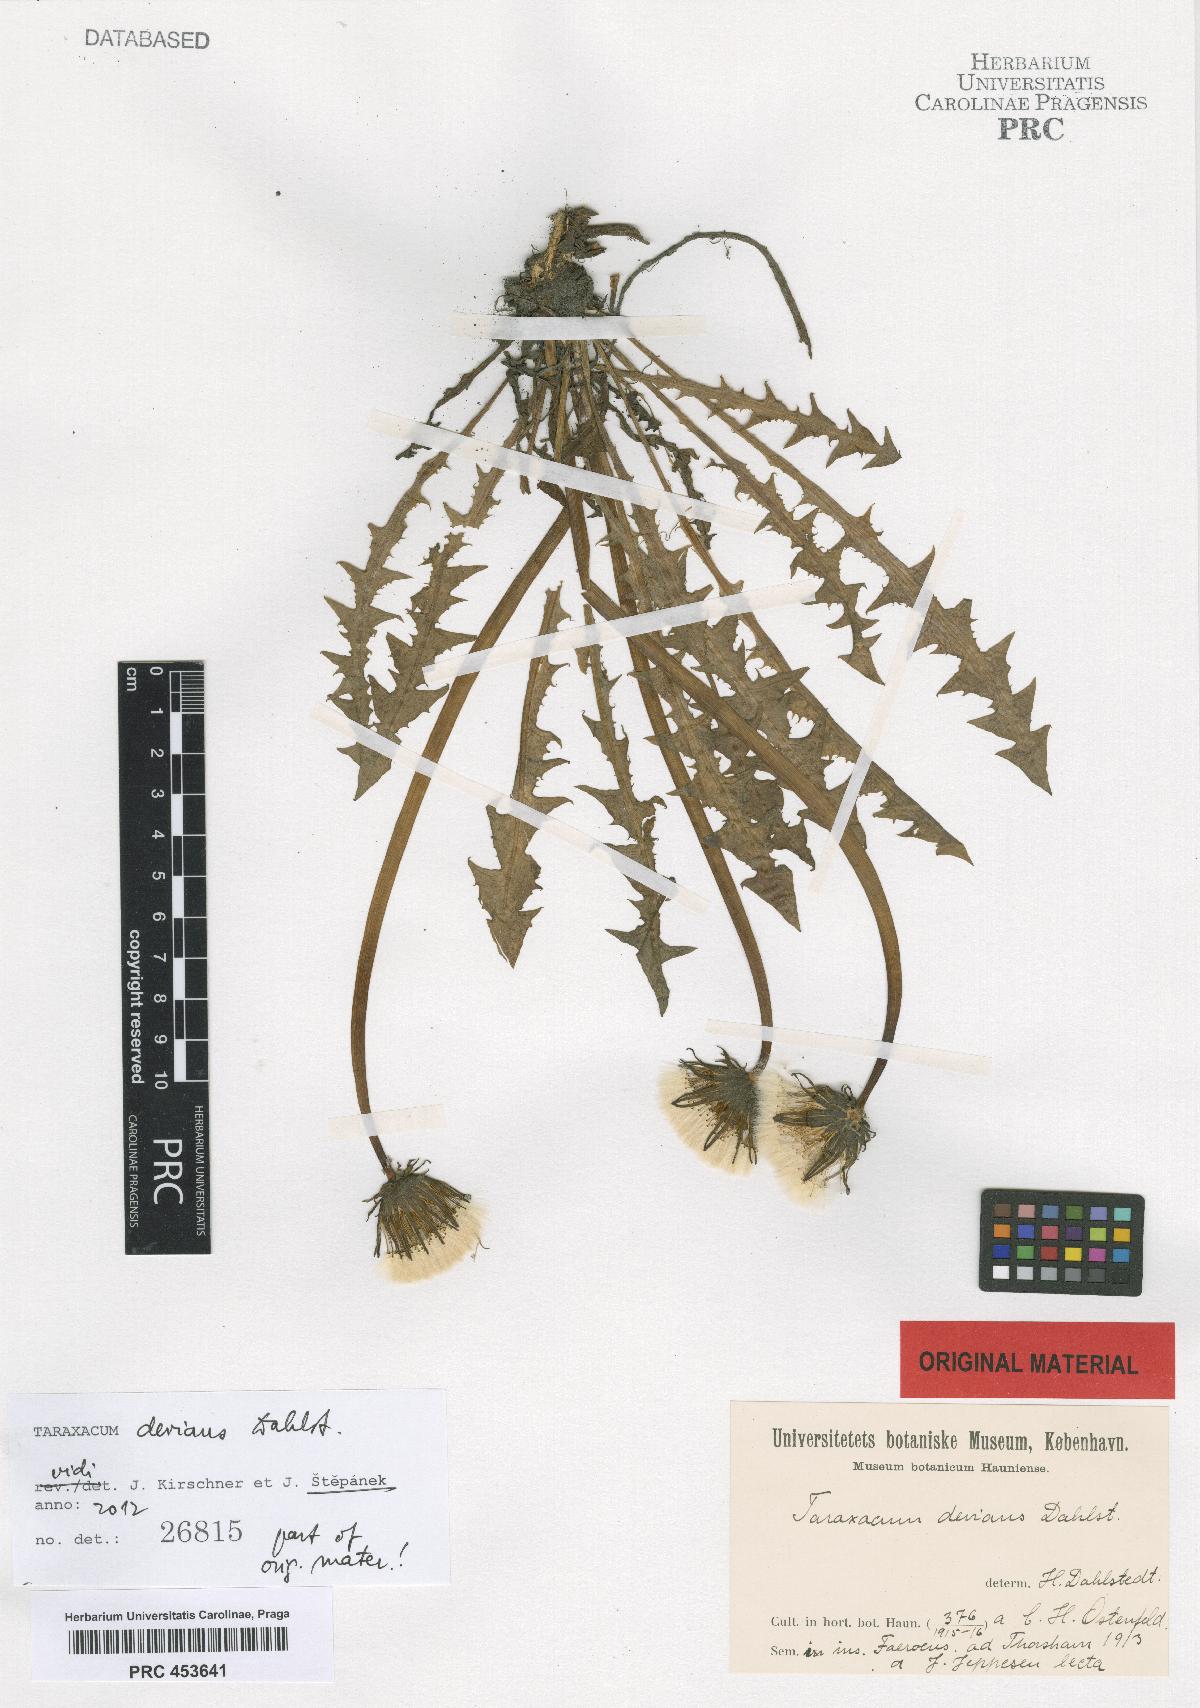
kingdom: Plantae
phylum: Tracheophyta
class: Magnoliopsida
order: Asterales
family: Asteraceae
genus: Taraxacum
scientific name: Taraxacum devians
